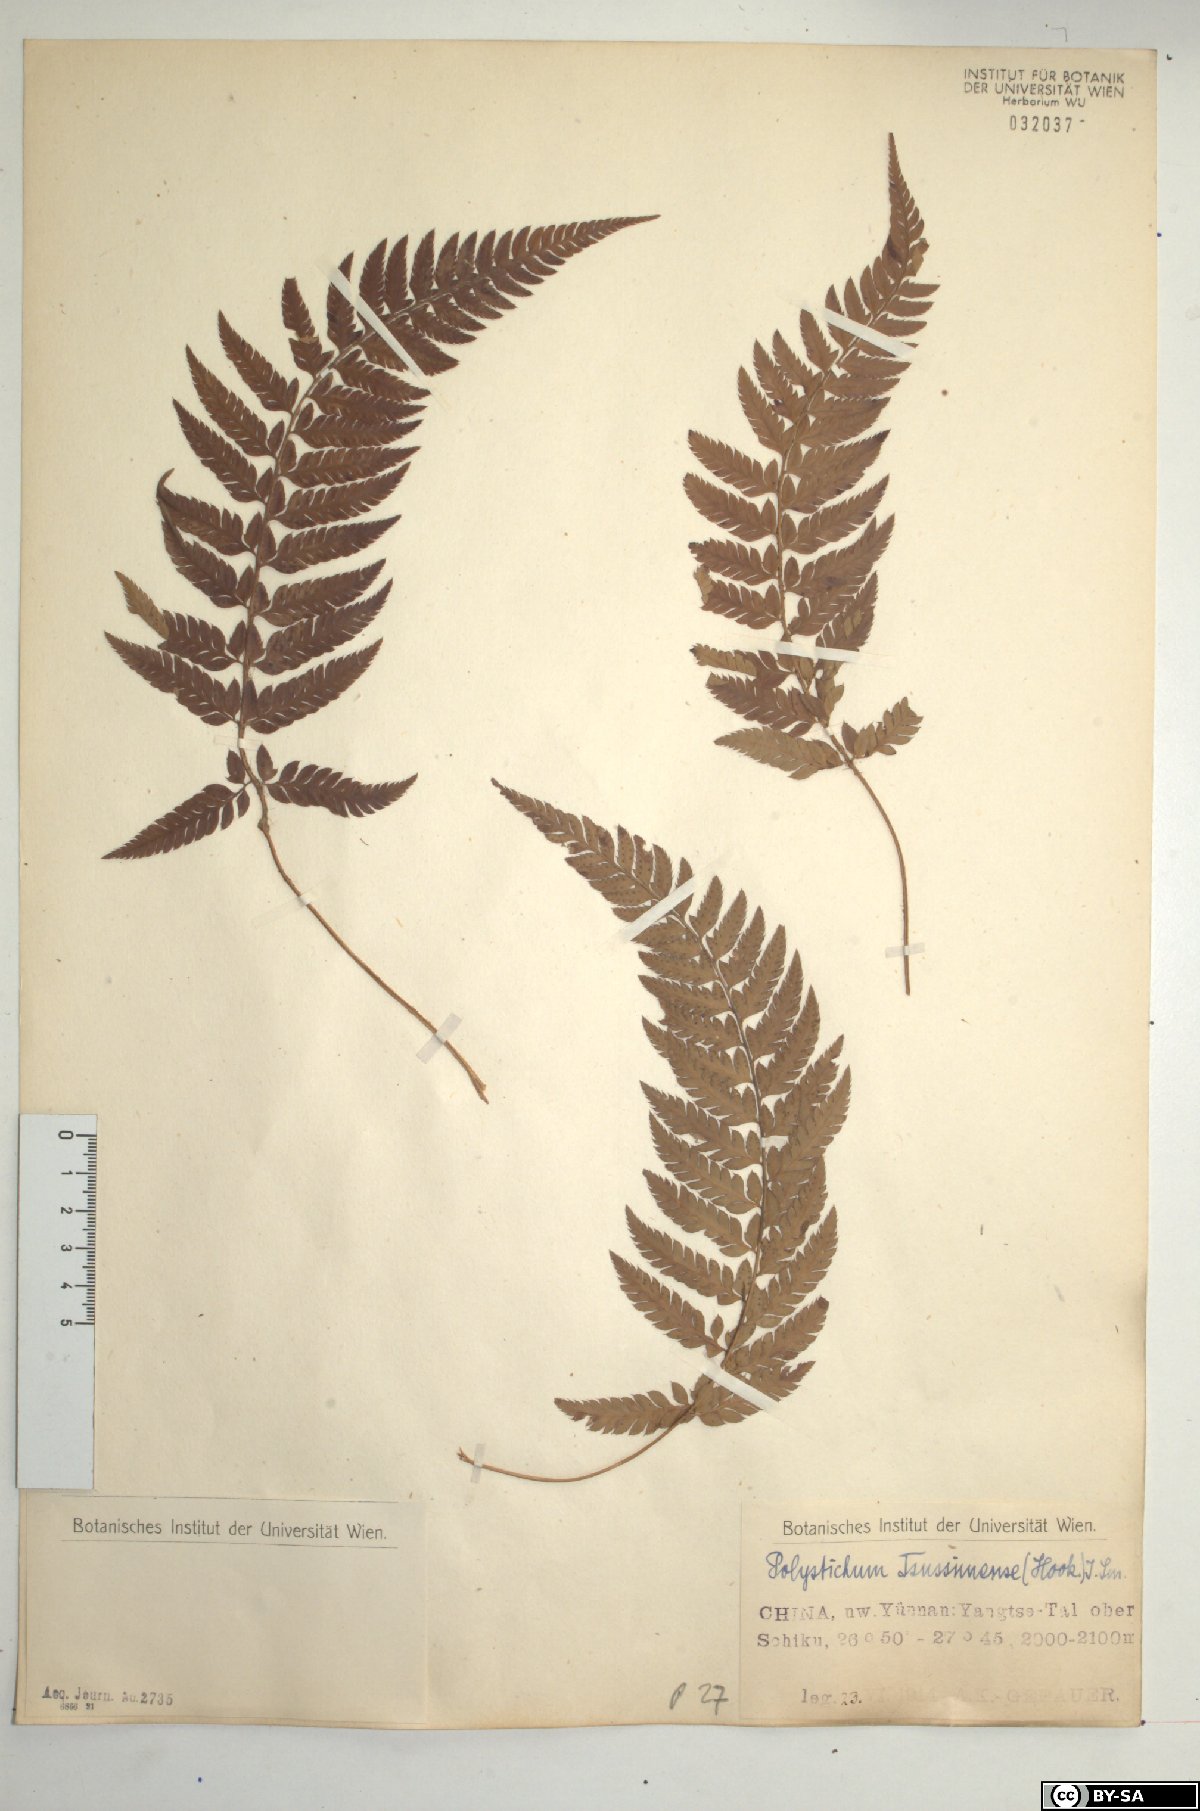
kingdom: Plantae
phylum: Tracheophyta
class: Polypodiopsida
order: Polypodiales
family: Dryopteridaceae
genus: Polystichum
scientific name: Polystichum luctuosum
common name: Korean rockfern
